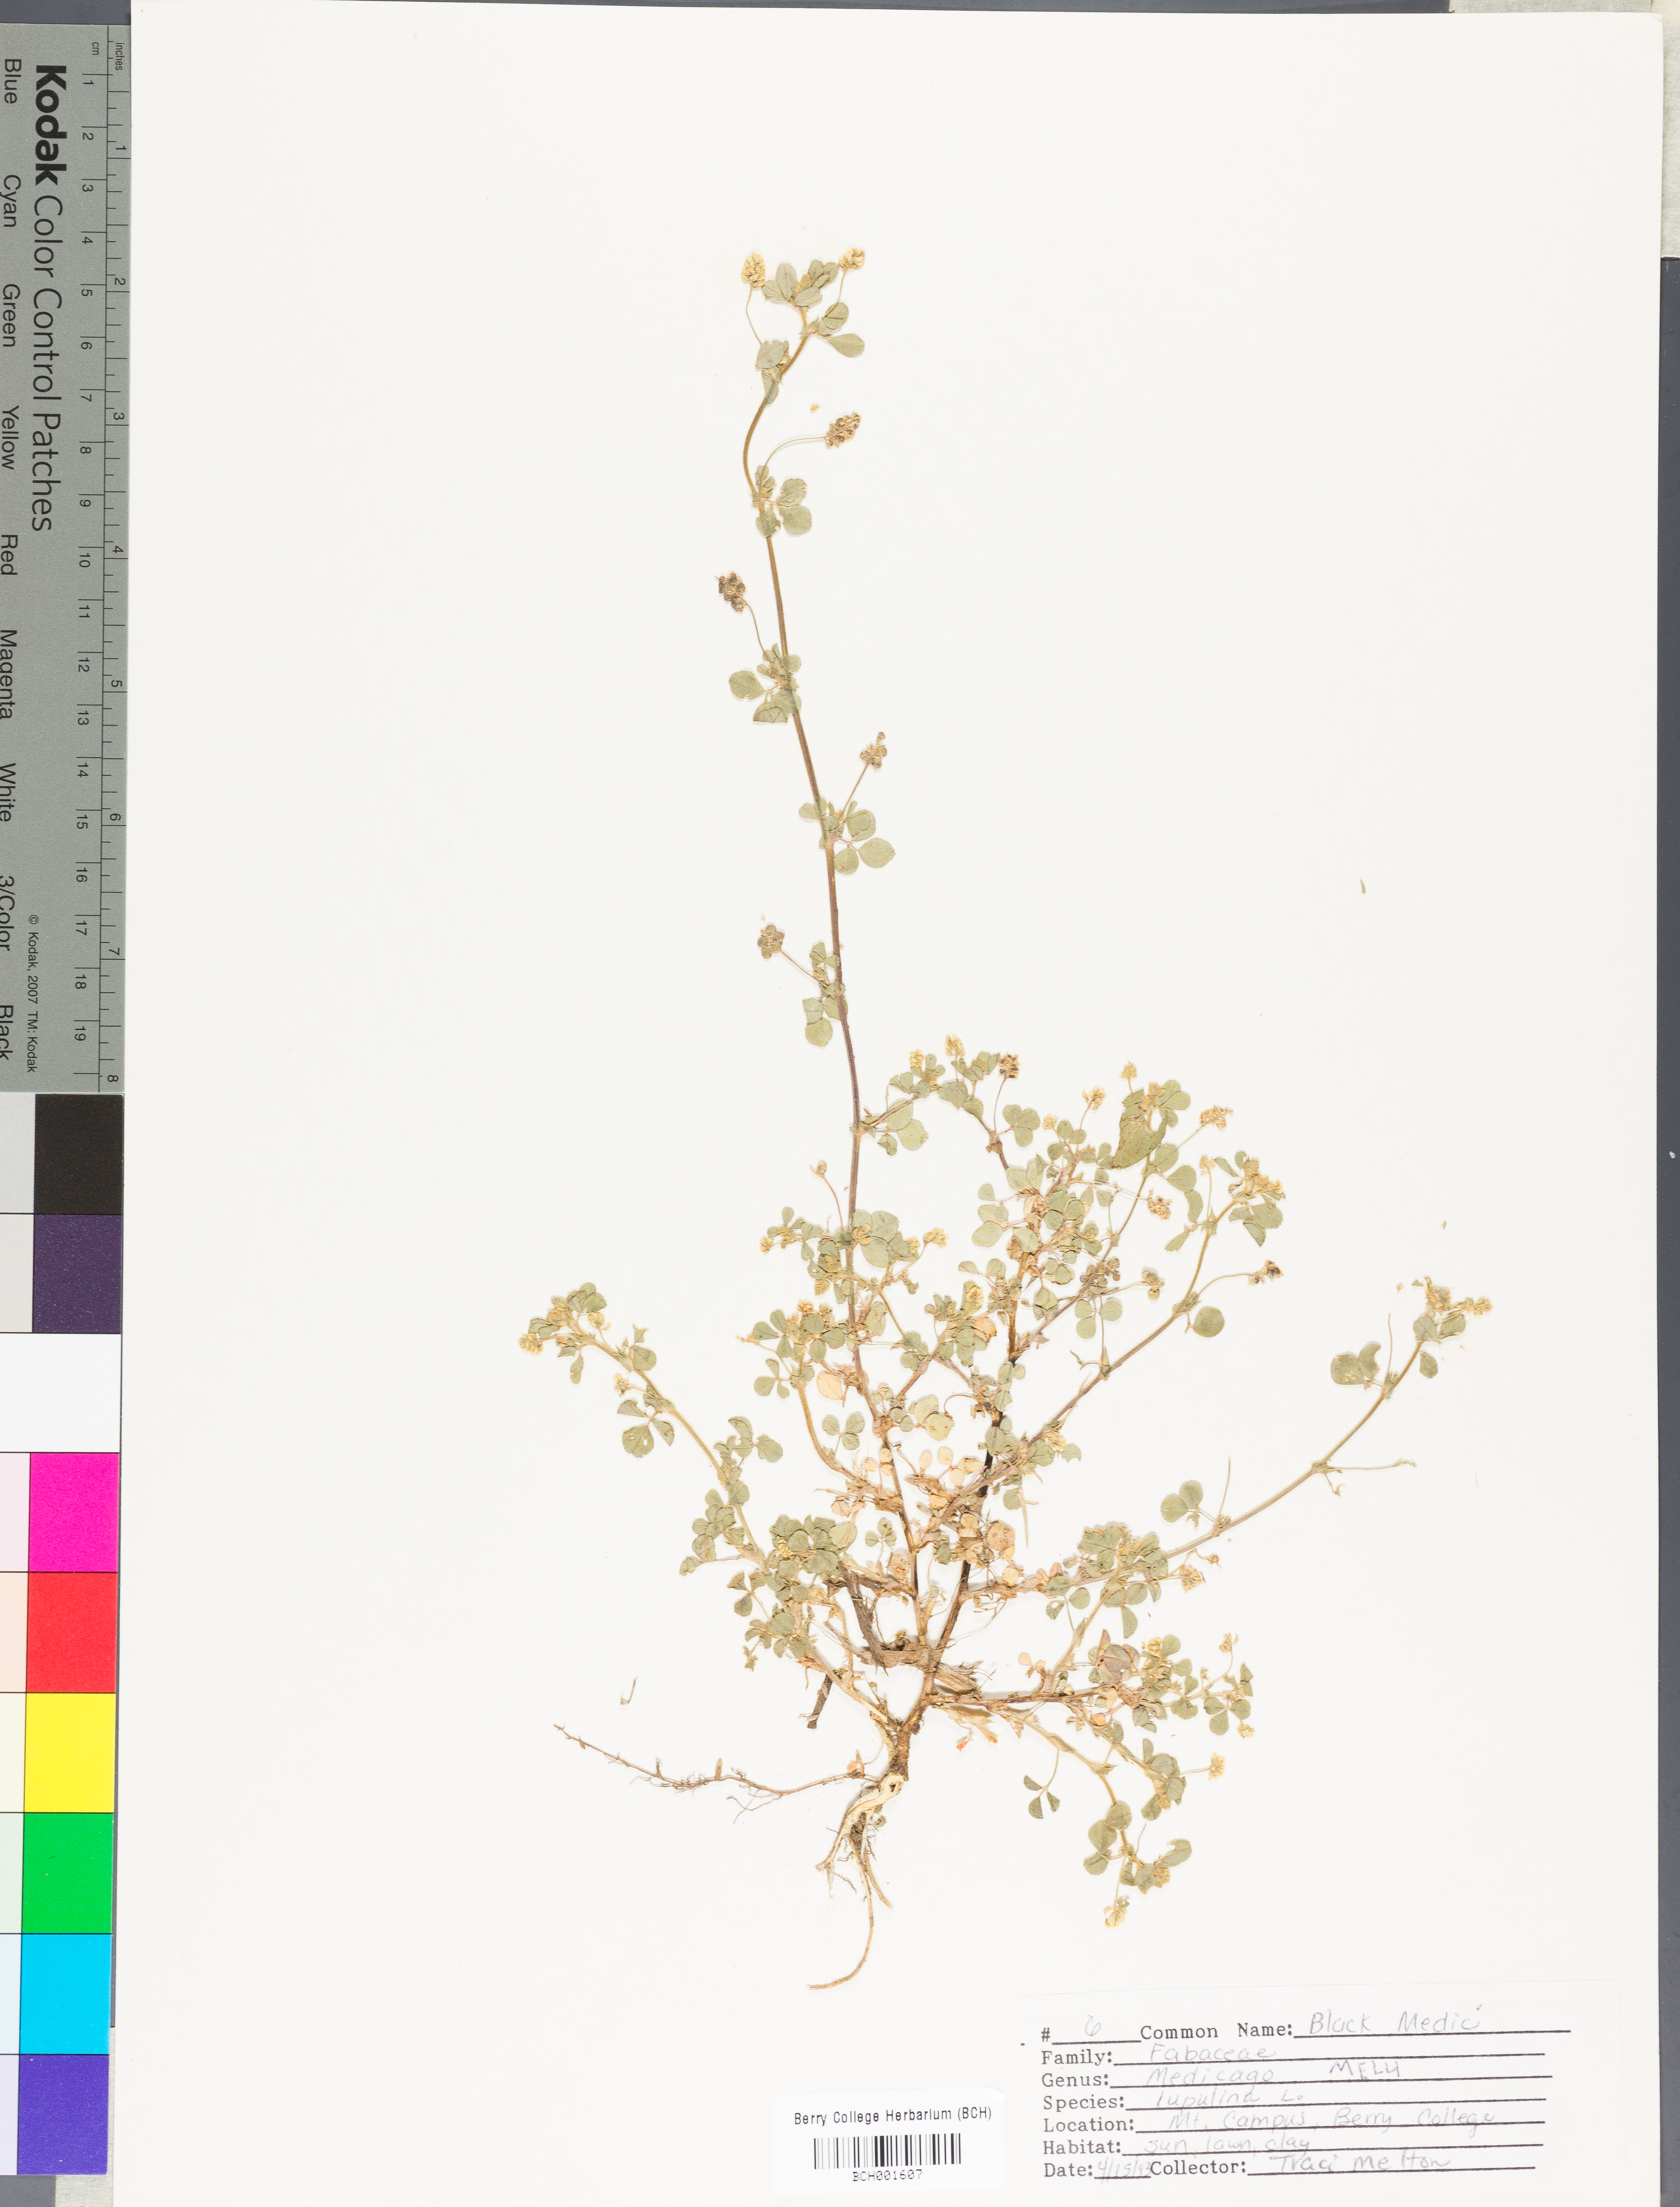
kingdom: Plantae
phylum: Tracheophyta
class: Magnoliopsida
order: Fabales
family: Fabaceae
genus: Medicago
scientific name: Medicago lupulina
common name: Black medick
